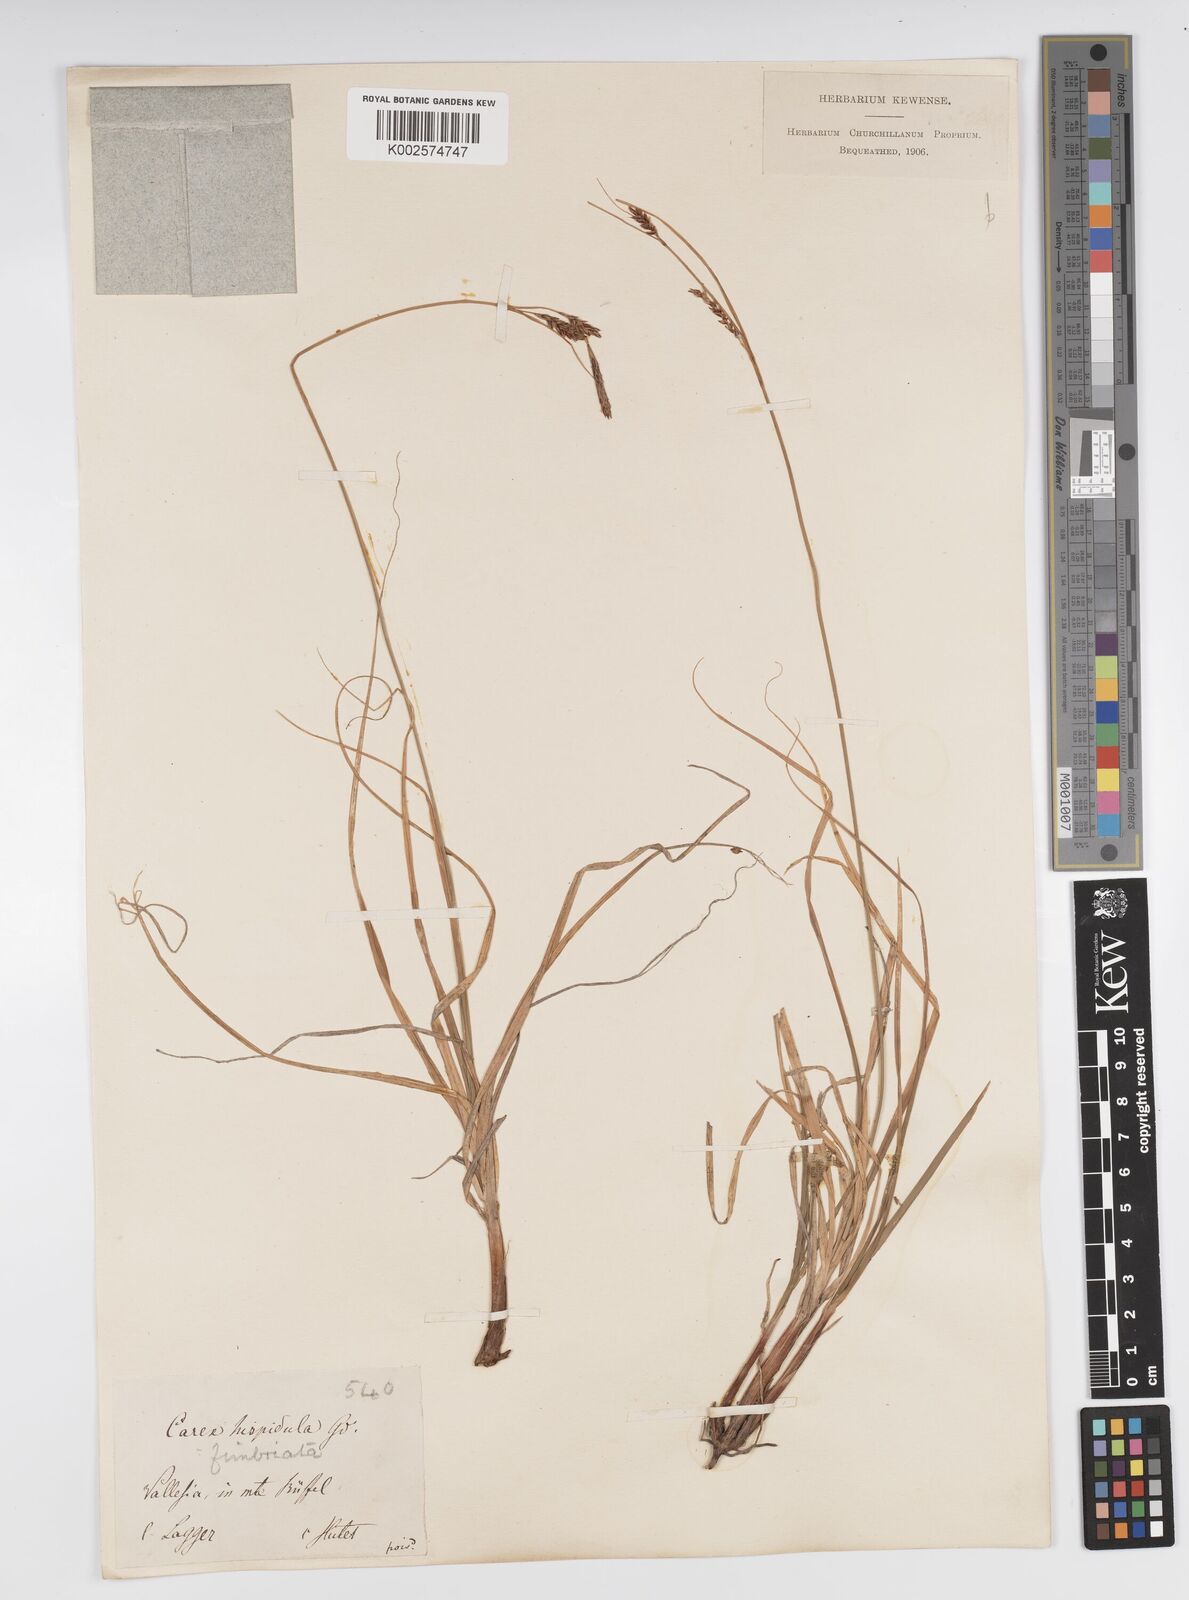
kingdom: Plantae
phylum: Tracheophyta
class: Liliopsida
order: Poales
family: Cyperaceae
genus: Carex
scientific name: Carex fimbriata
